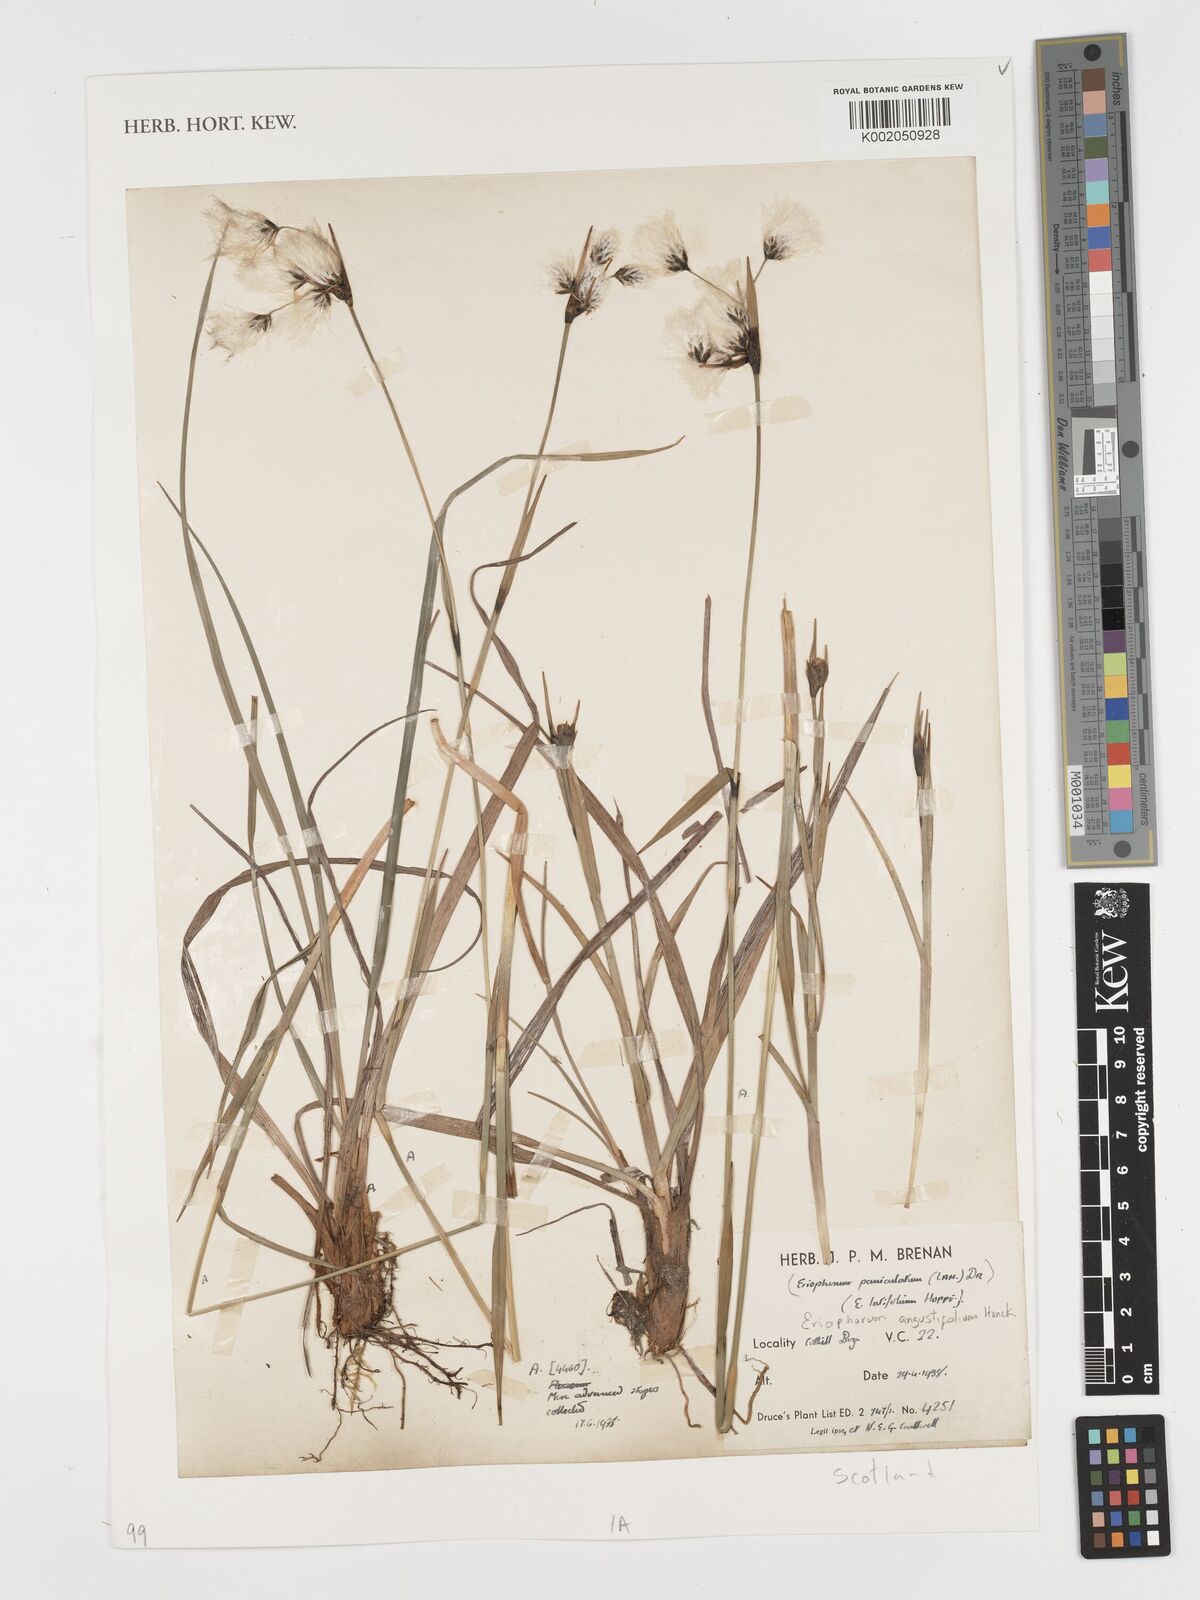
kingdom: Plantae
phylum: Tracheophyta
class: Liliopsida
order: Poales
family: Cyperaceae
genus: Eriophorum
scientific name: Eriophorum angustifolium
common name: Common cottongrass
